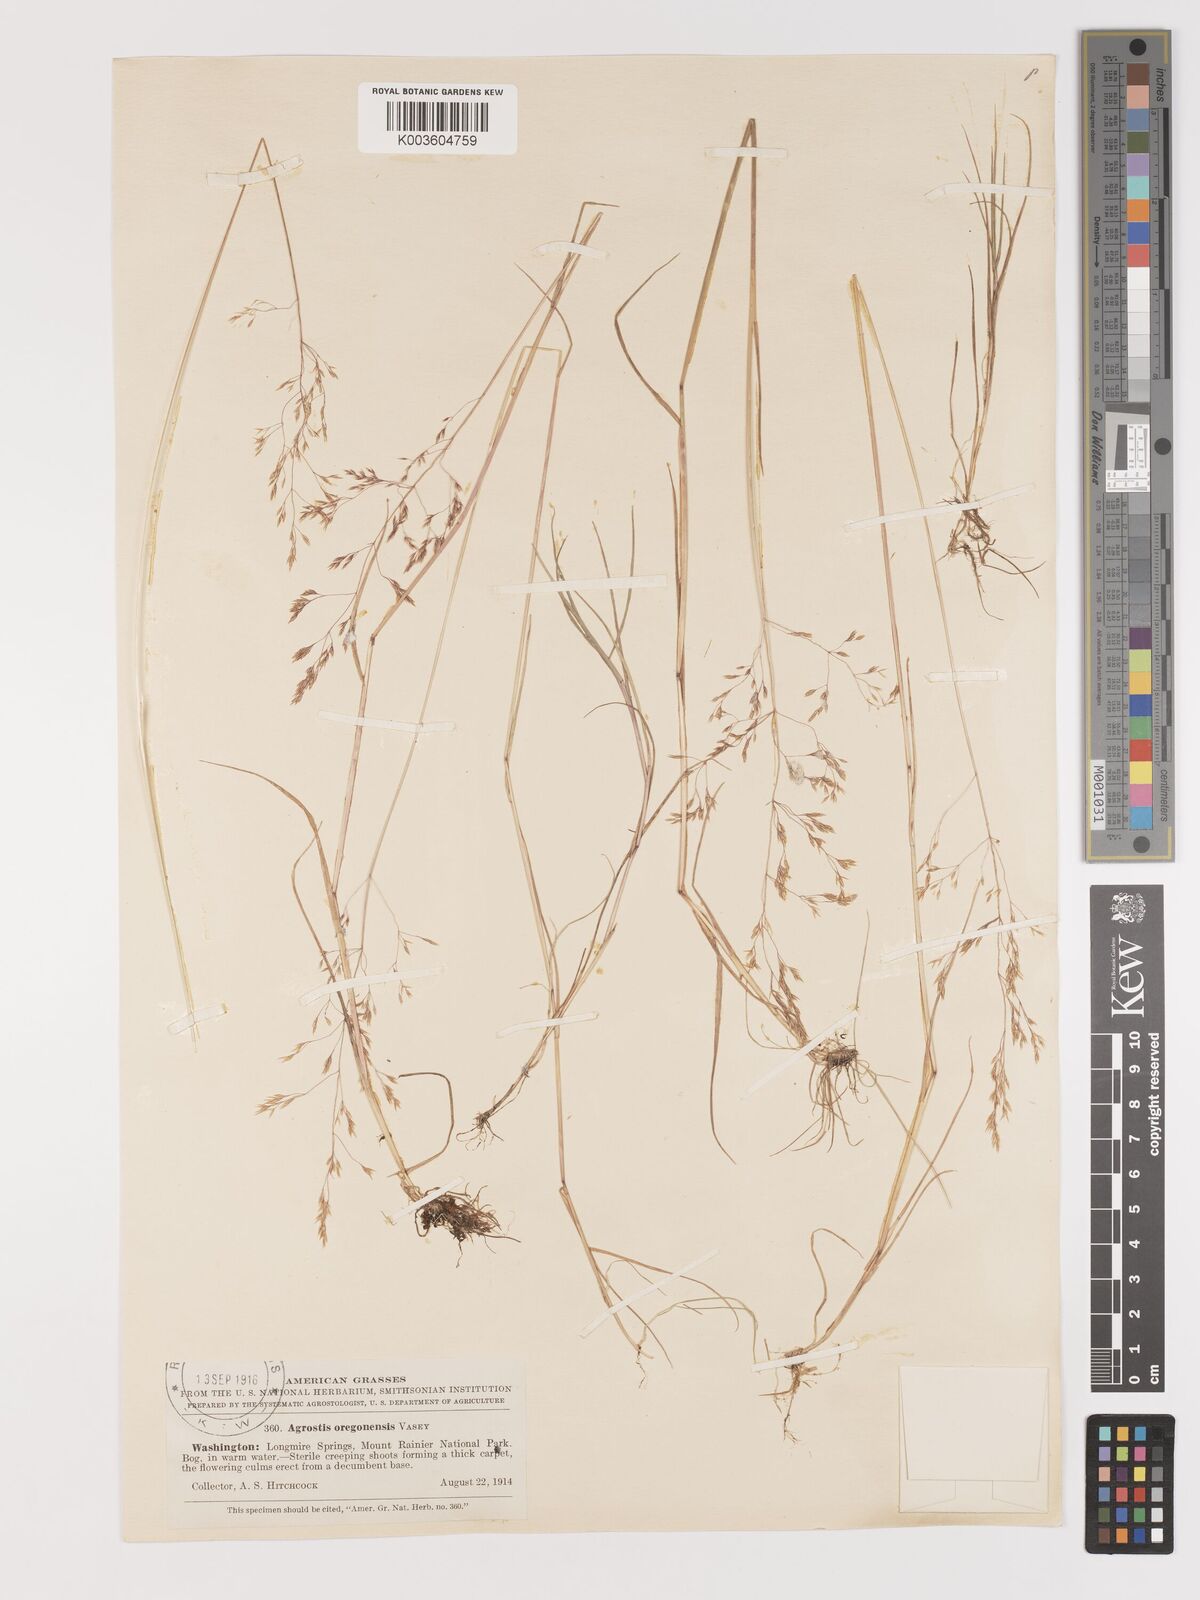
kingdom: Plantae
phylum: Tracheophyta
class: Liliopsida
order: Poales
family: Poaceae
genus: Agrostis
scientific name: Agrostis oregonensis
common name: Oregon bent
